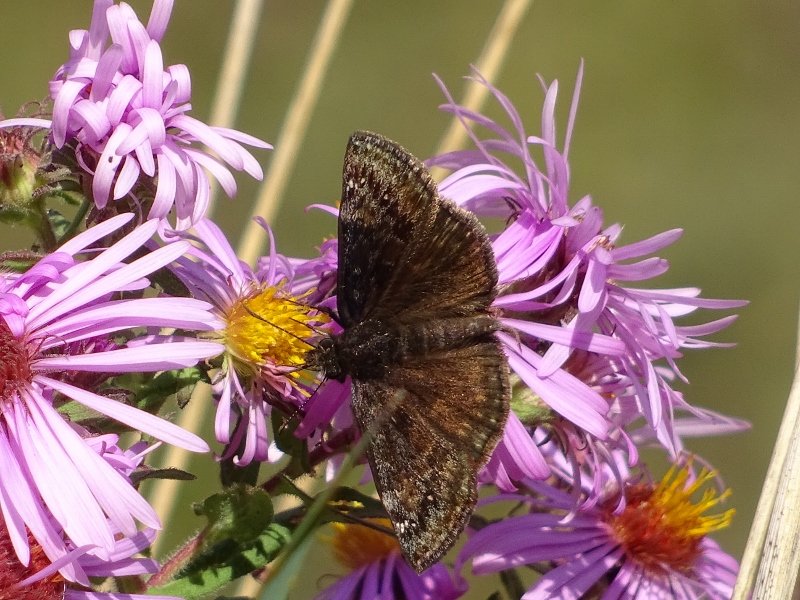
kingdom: Animalia
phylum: Arthropoda
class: Insecta
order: Lepidoptera
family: Hesperiidae
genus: Gesta
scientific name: Gesta
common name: Wild Indigo Duskywing
